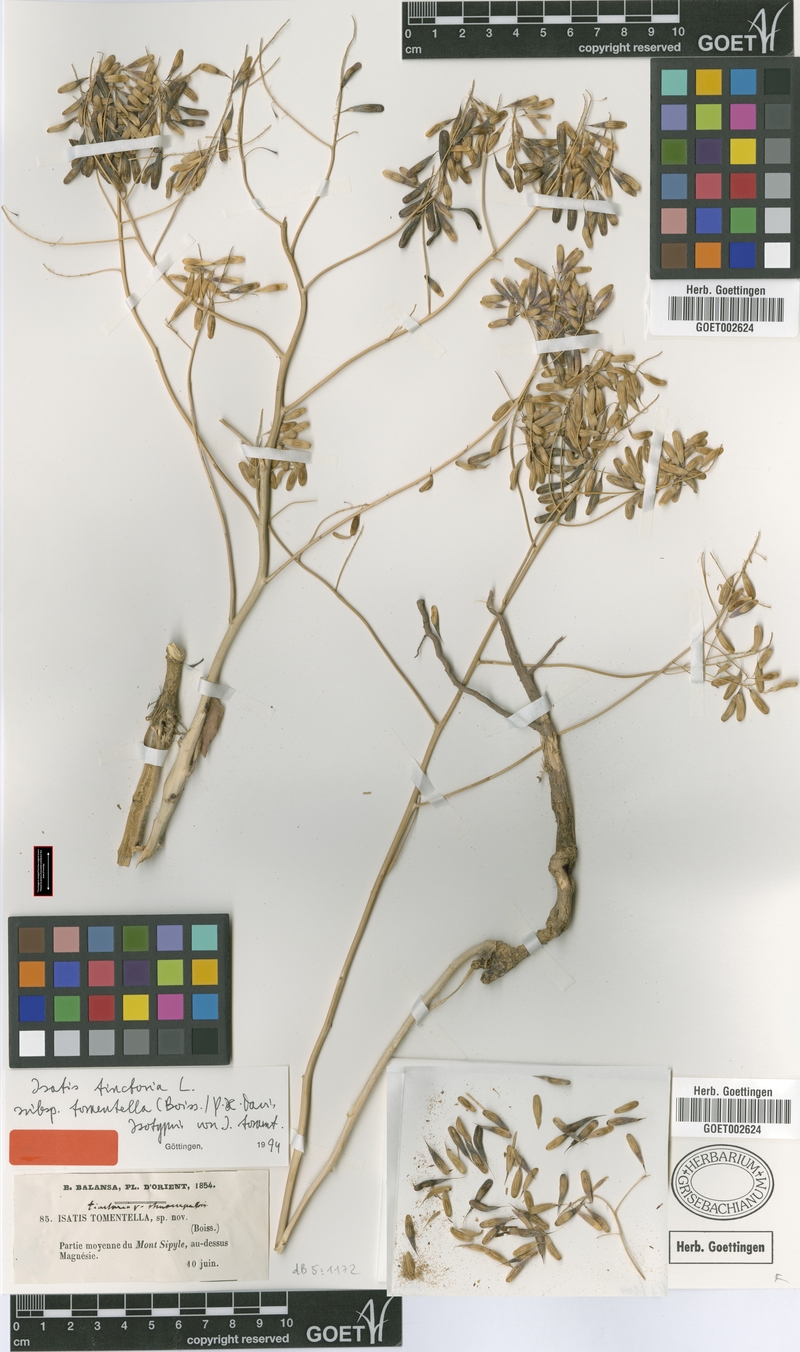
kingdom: Plantae
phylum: Tracheophyta
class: Magnoliopsida
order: Brassicales
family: Brassicaceae
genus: Isatis
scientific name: Isatis tomentella
